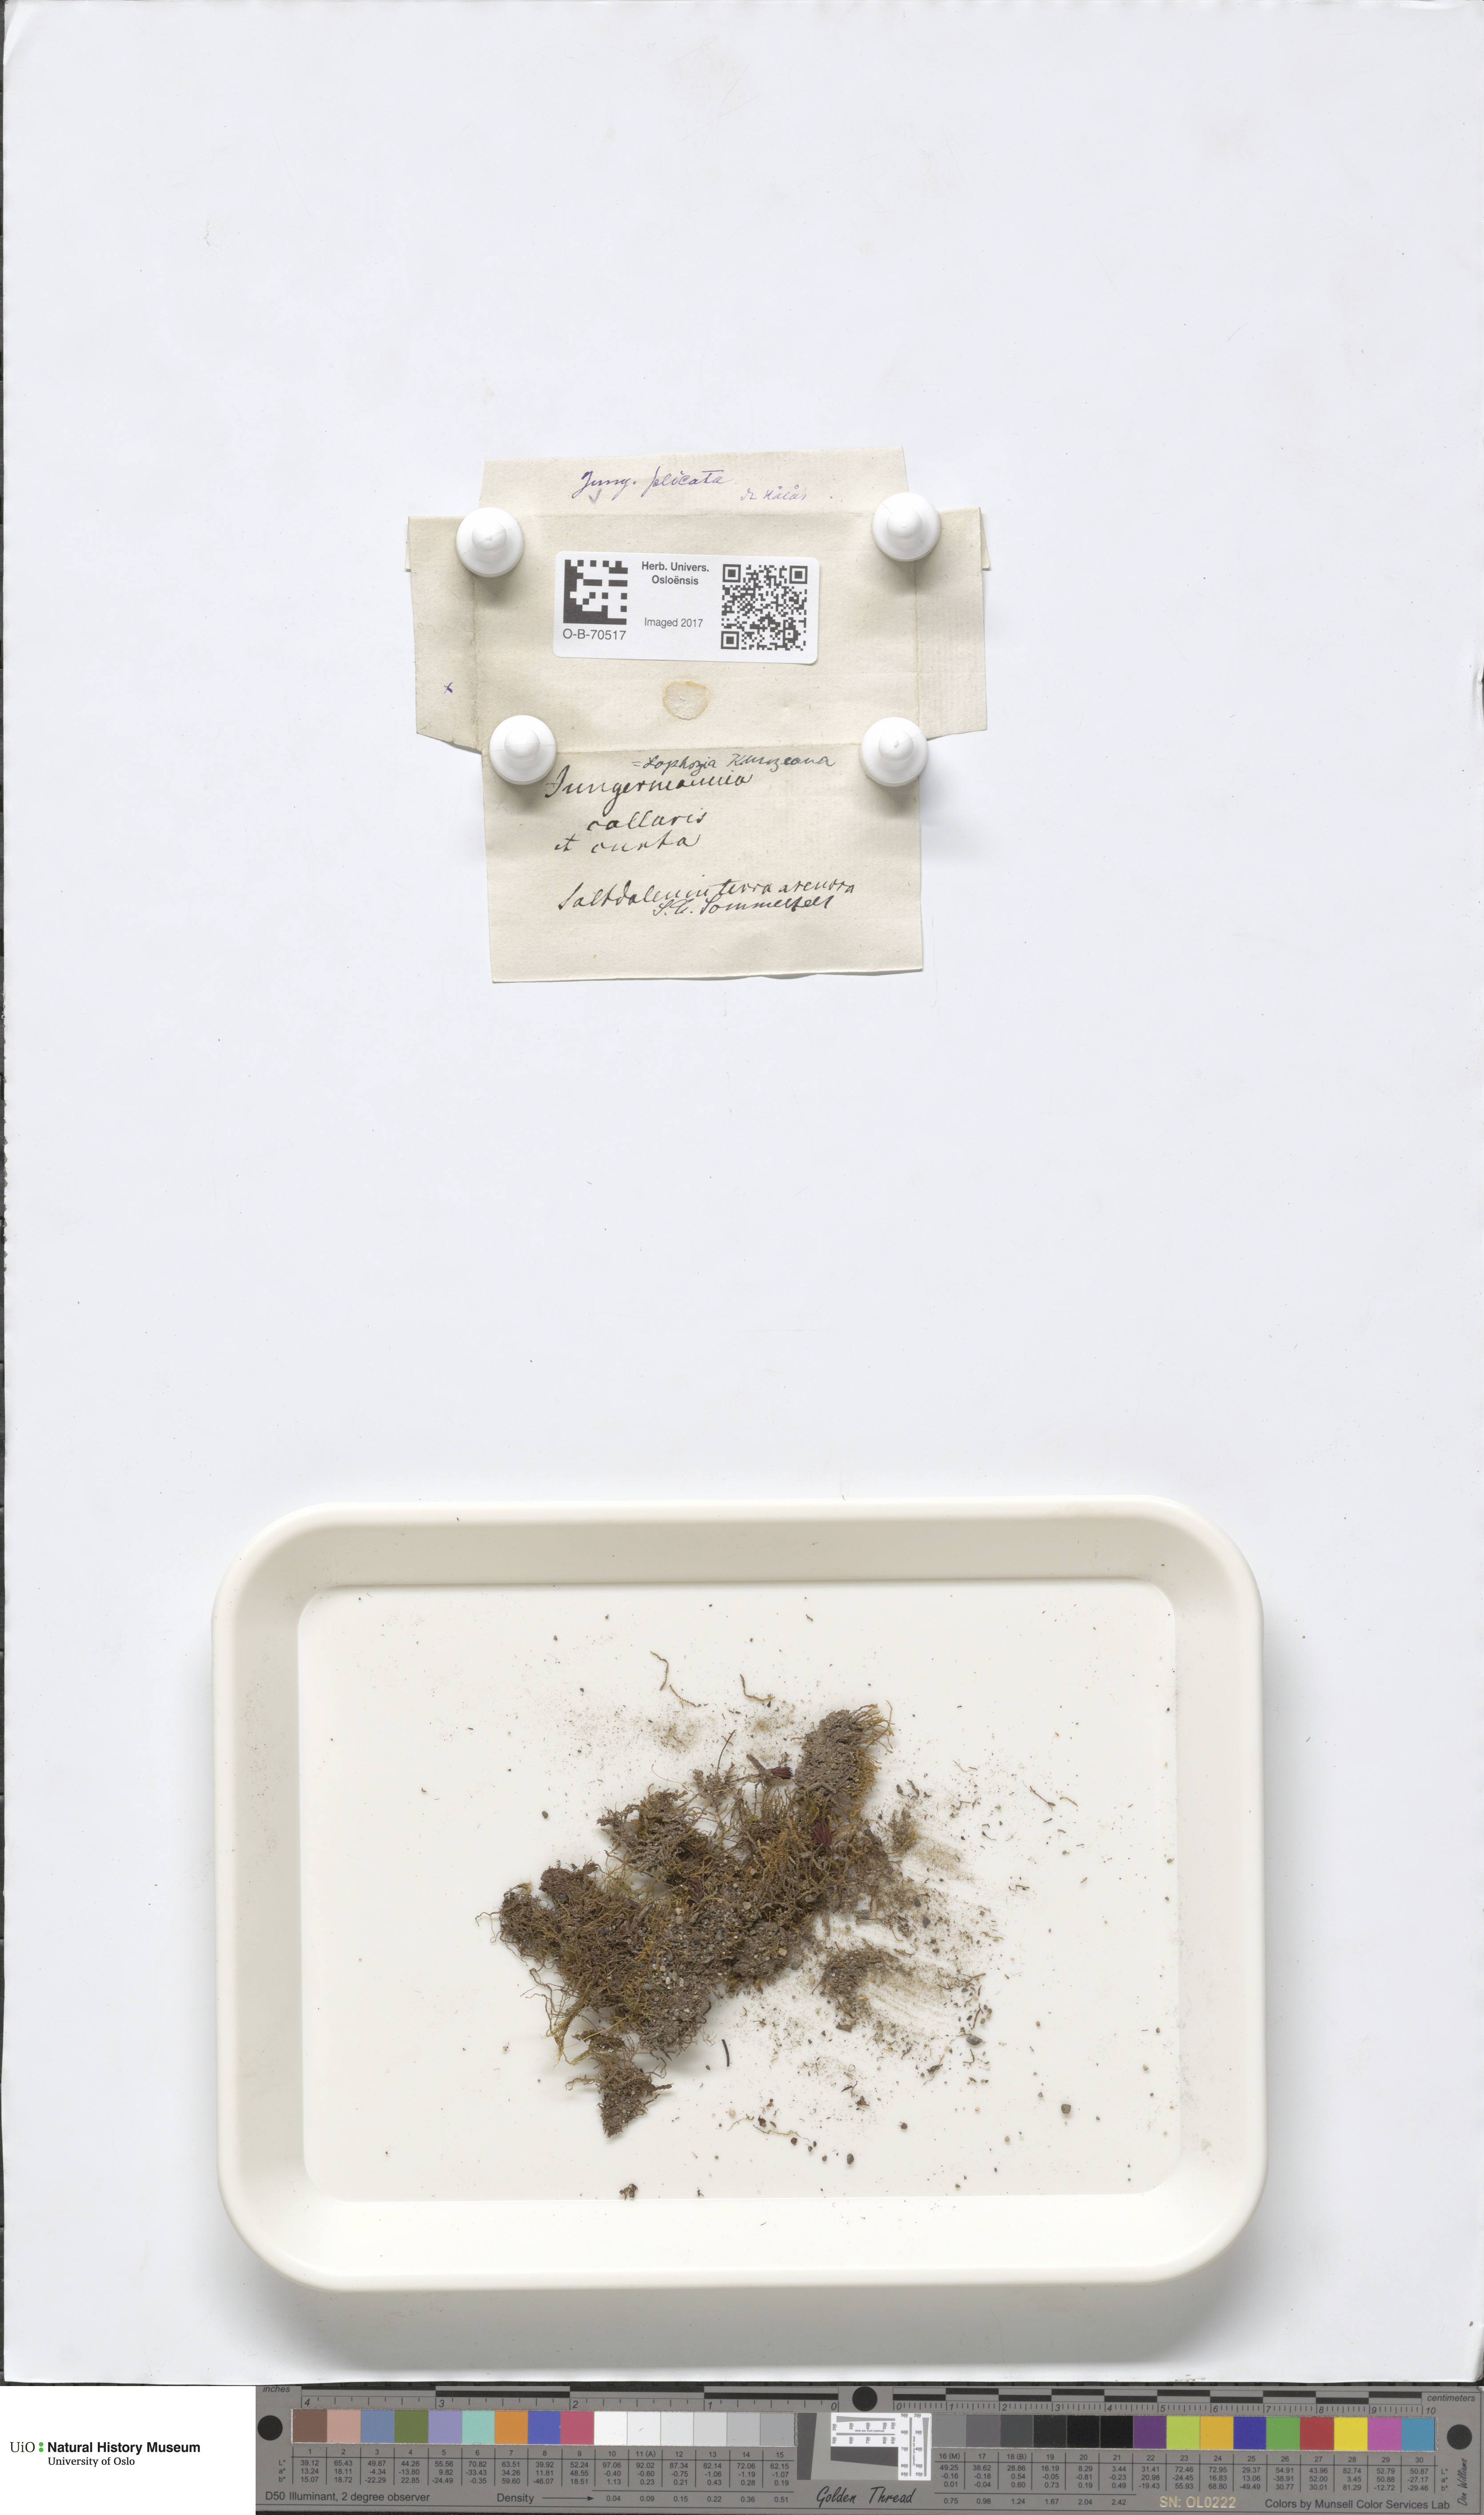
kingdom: Plantae
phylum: Marchantiophyta
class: Jungermanniopsida
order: Jungermanniales
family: Anastrophyllaceae
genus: Schljakovia
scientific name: Schljakovia kunzeana
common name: Kunze's pawwort
